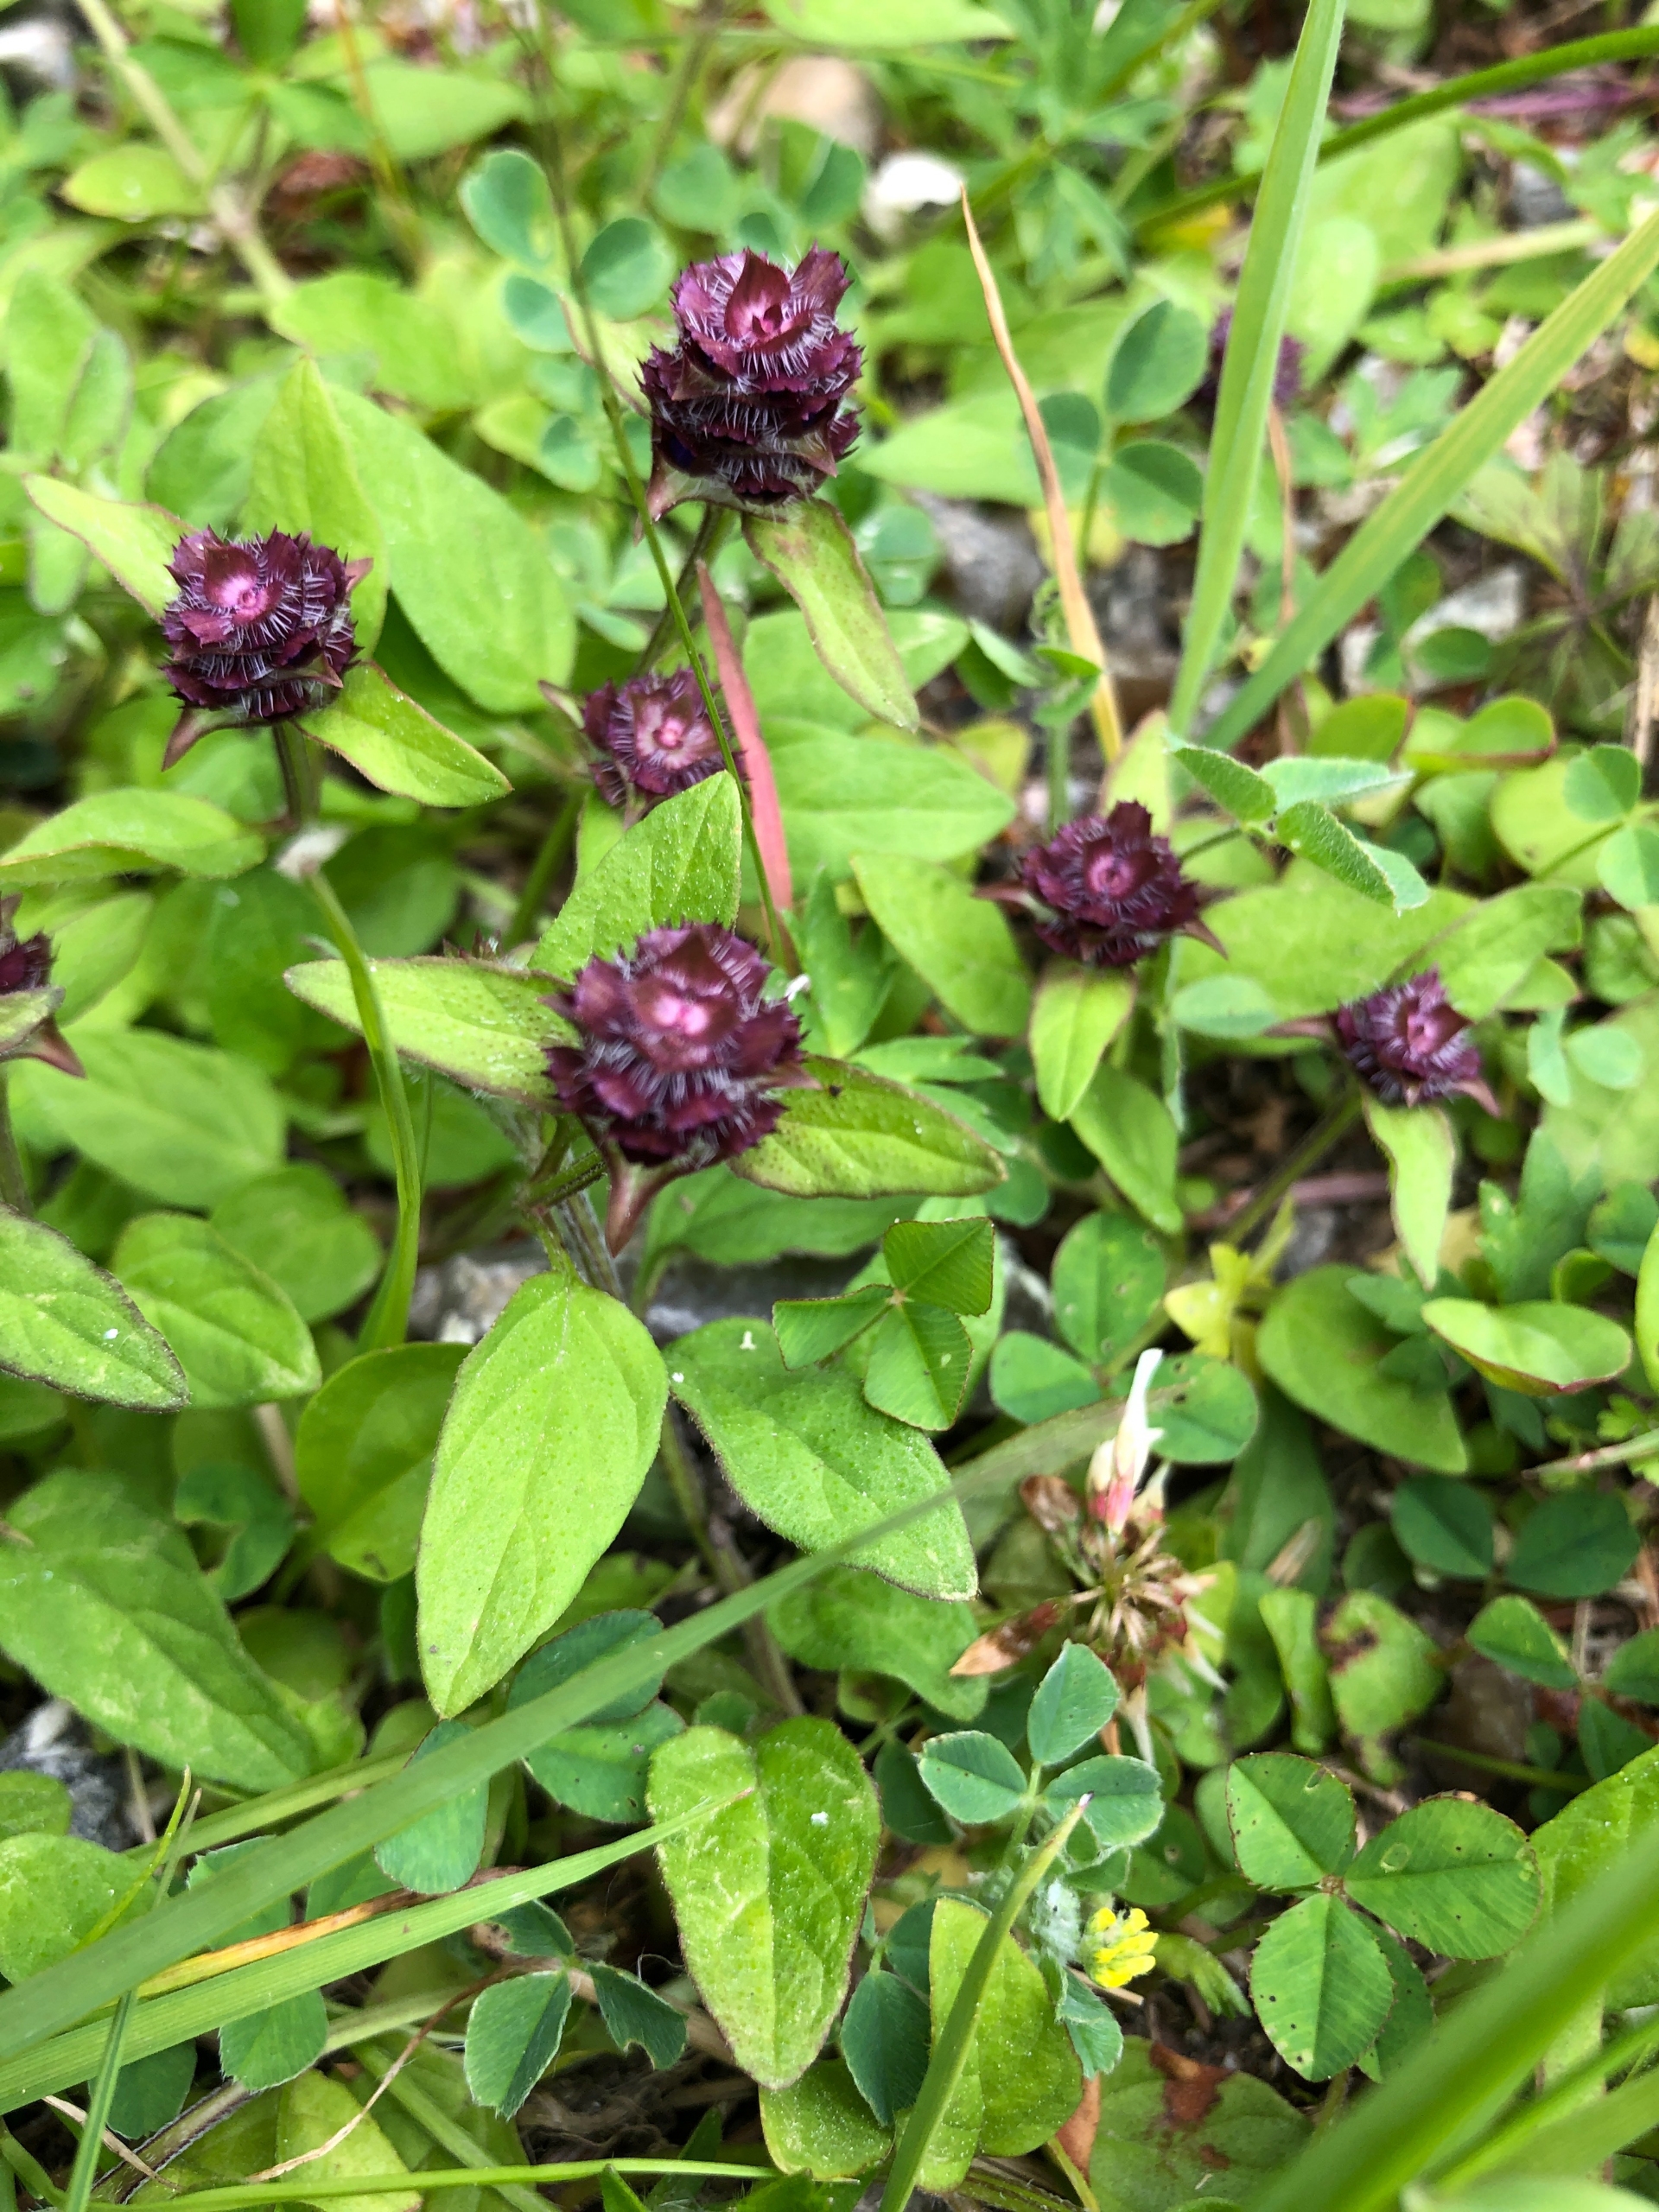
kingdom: Plantae
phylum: Tracheophyta
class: Magnoliopsida
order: Lamiales
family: Lamiaceae
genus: Prunella
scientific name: Prunella vulgaris
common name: Almindelig brunelle
